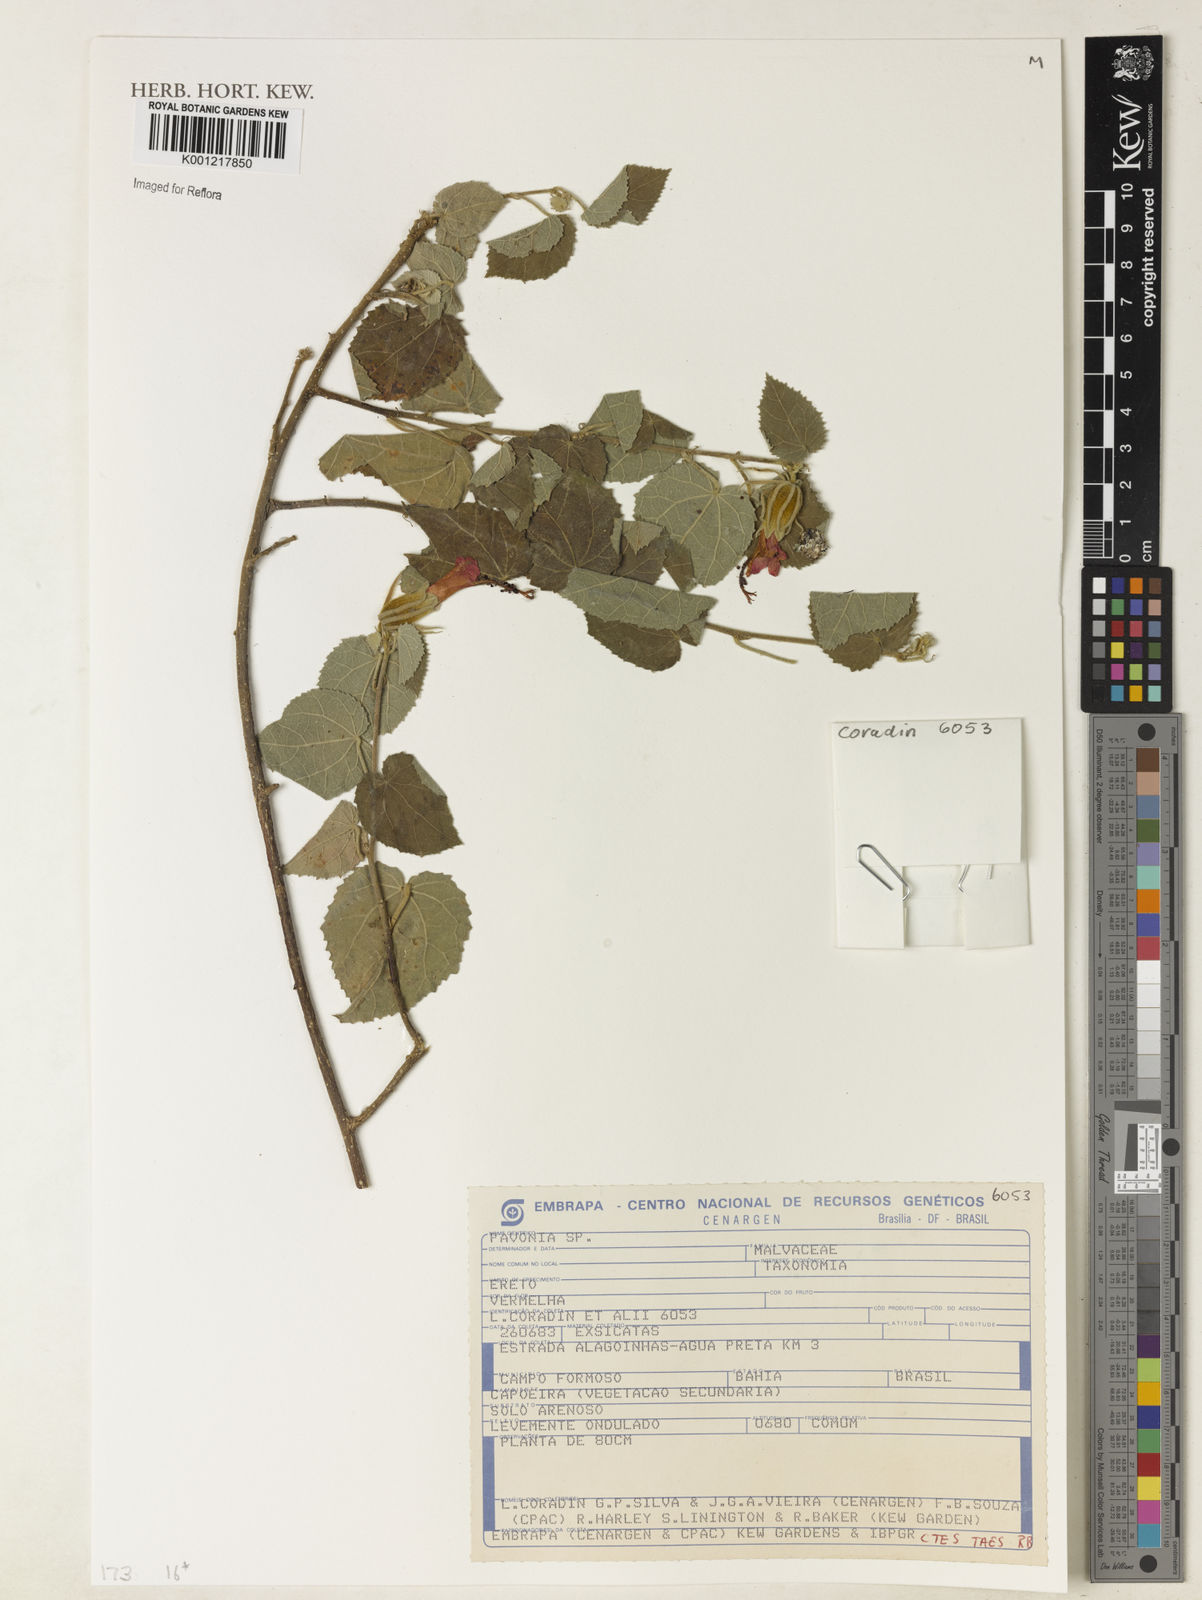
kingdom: Plantae
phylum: Tracheophyta
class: Magnoliopsida
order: Malvales
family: Malvaceae
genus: Pavonia
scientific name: Pavonia
